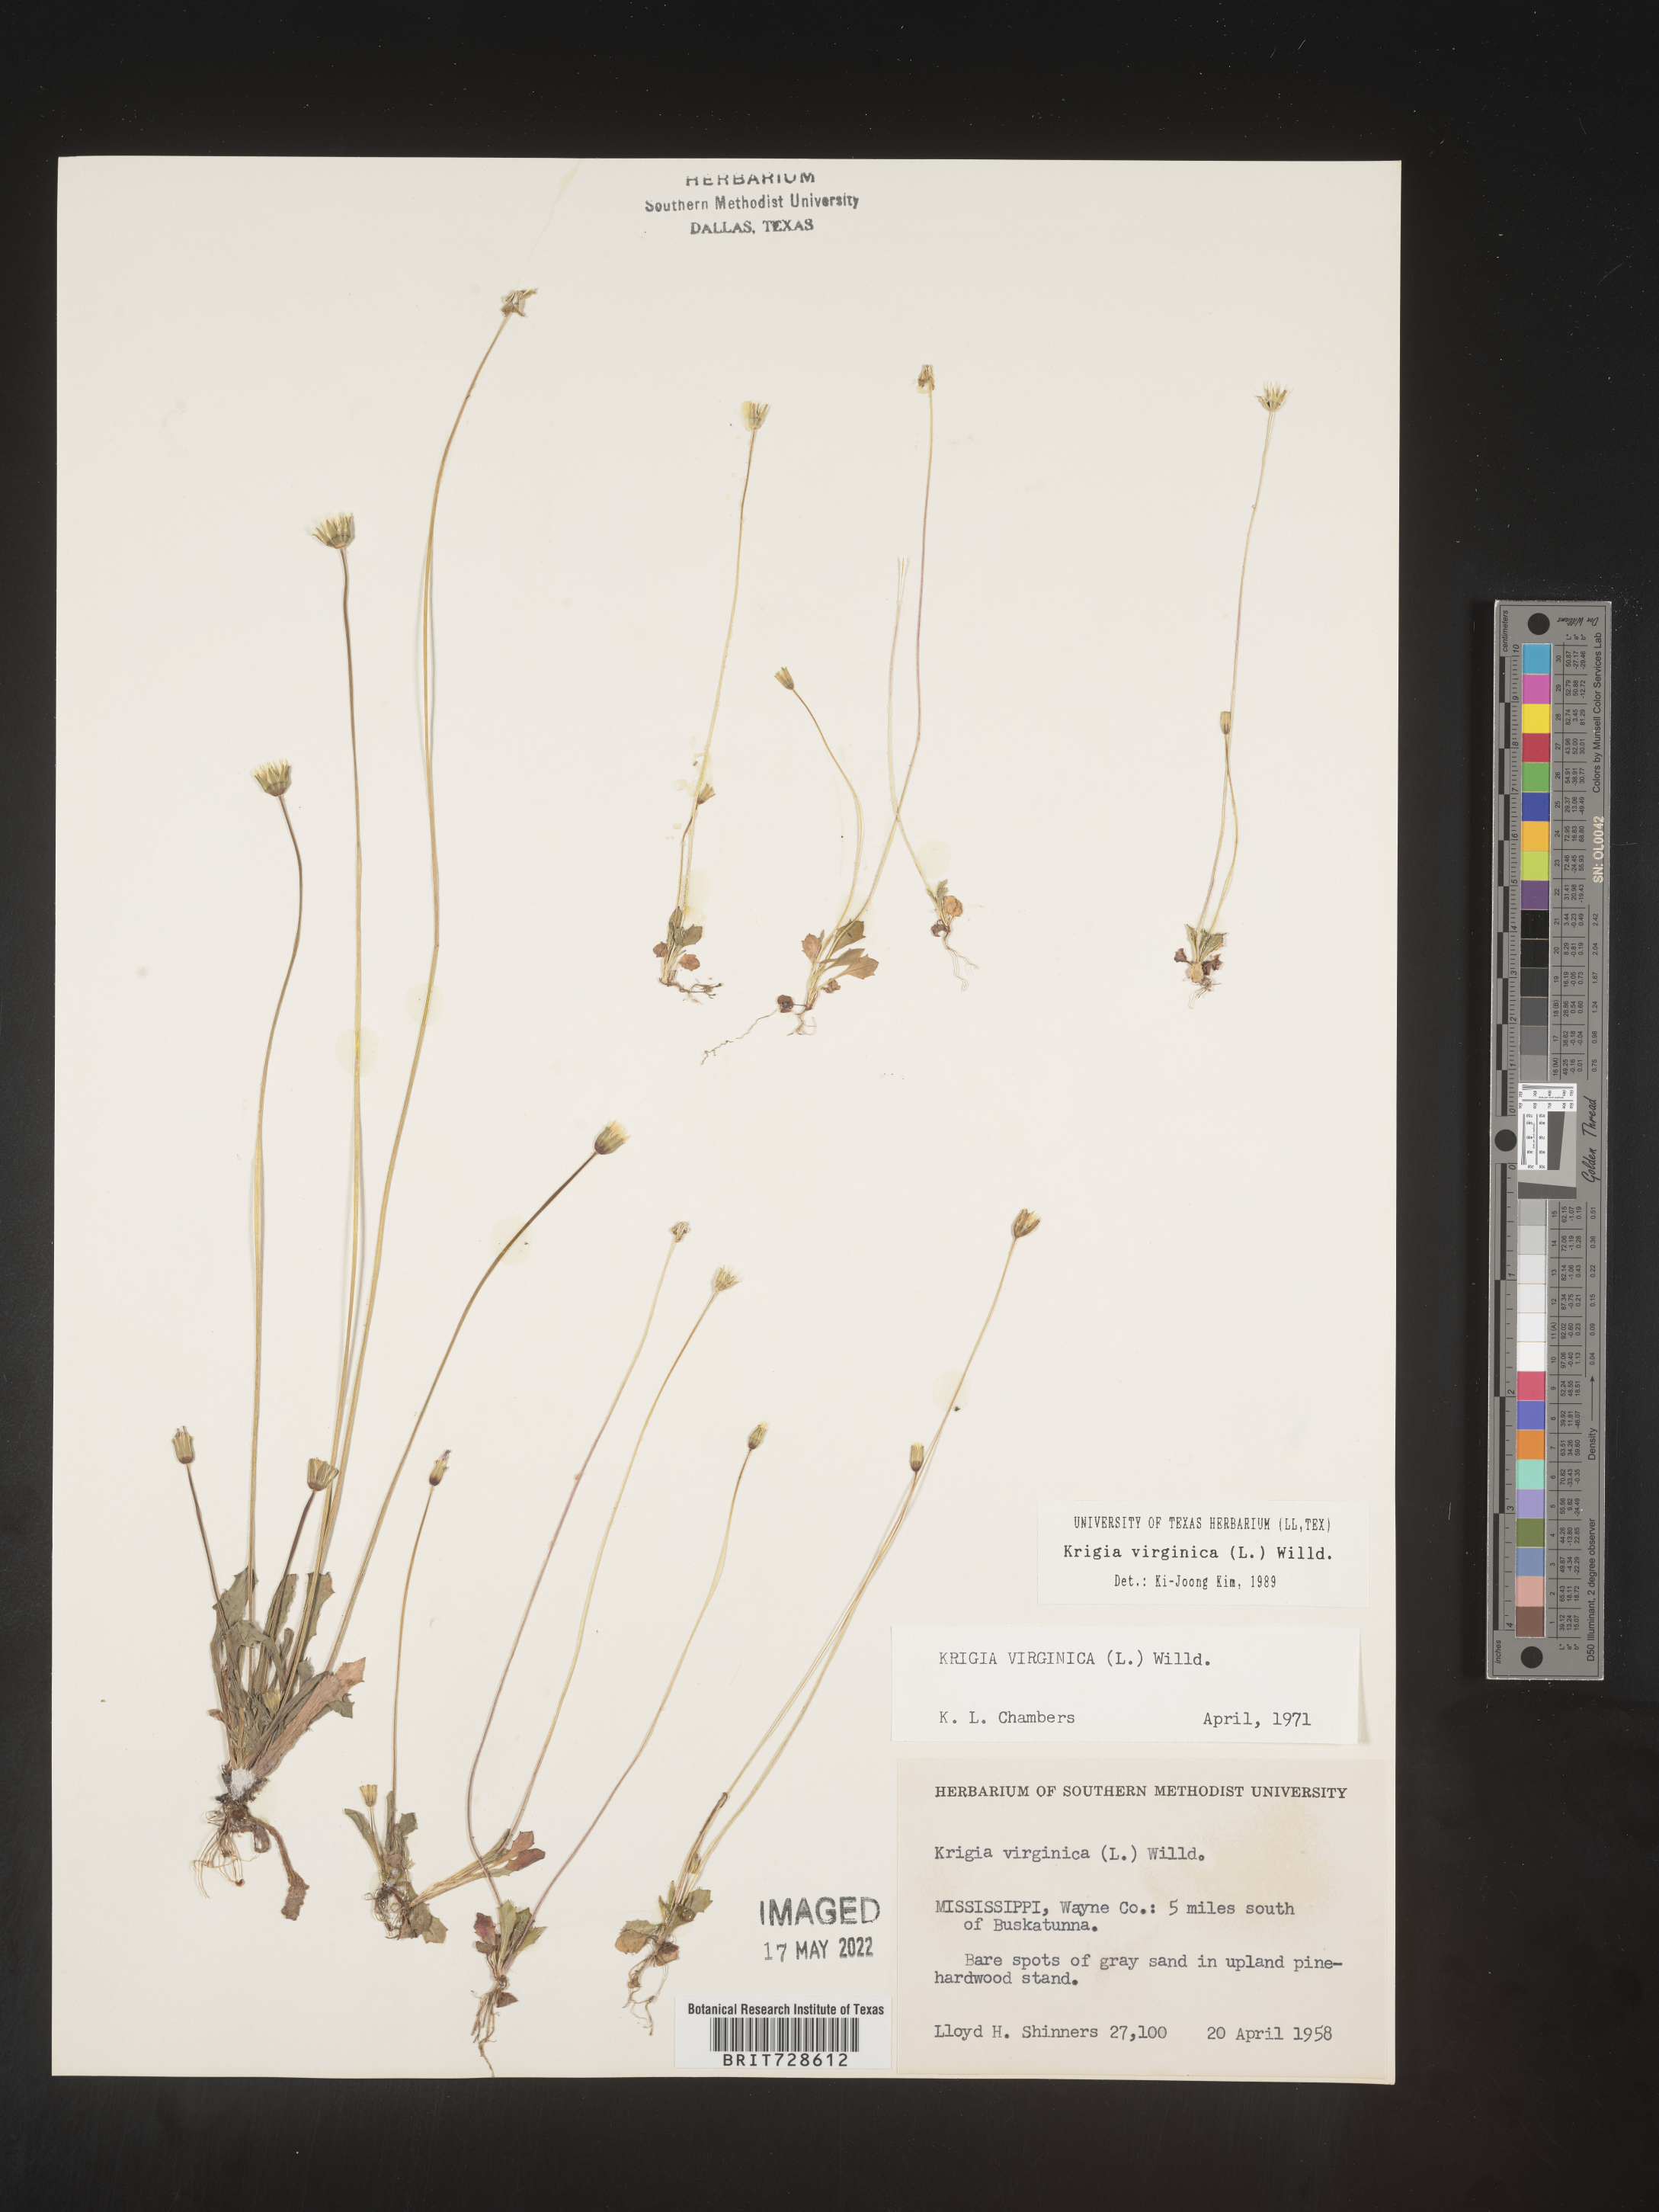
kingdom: Plantae
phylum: Tracheophyta
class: Magnoliopsida
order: Asterales
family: Asteraceae
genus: Krigia
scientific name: Krigia virginica
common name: Virginia dwarf-dandelion
